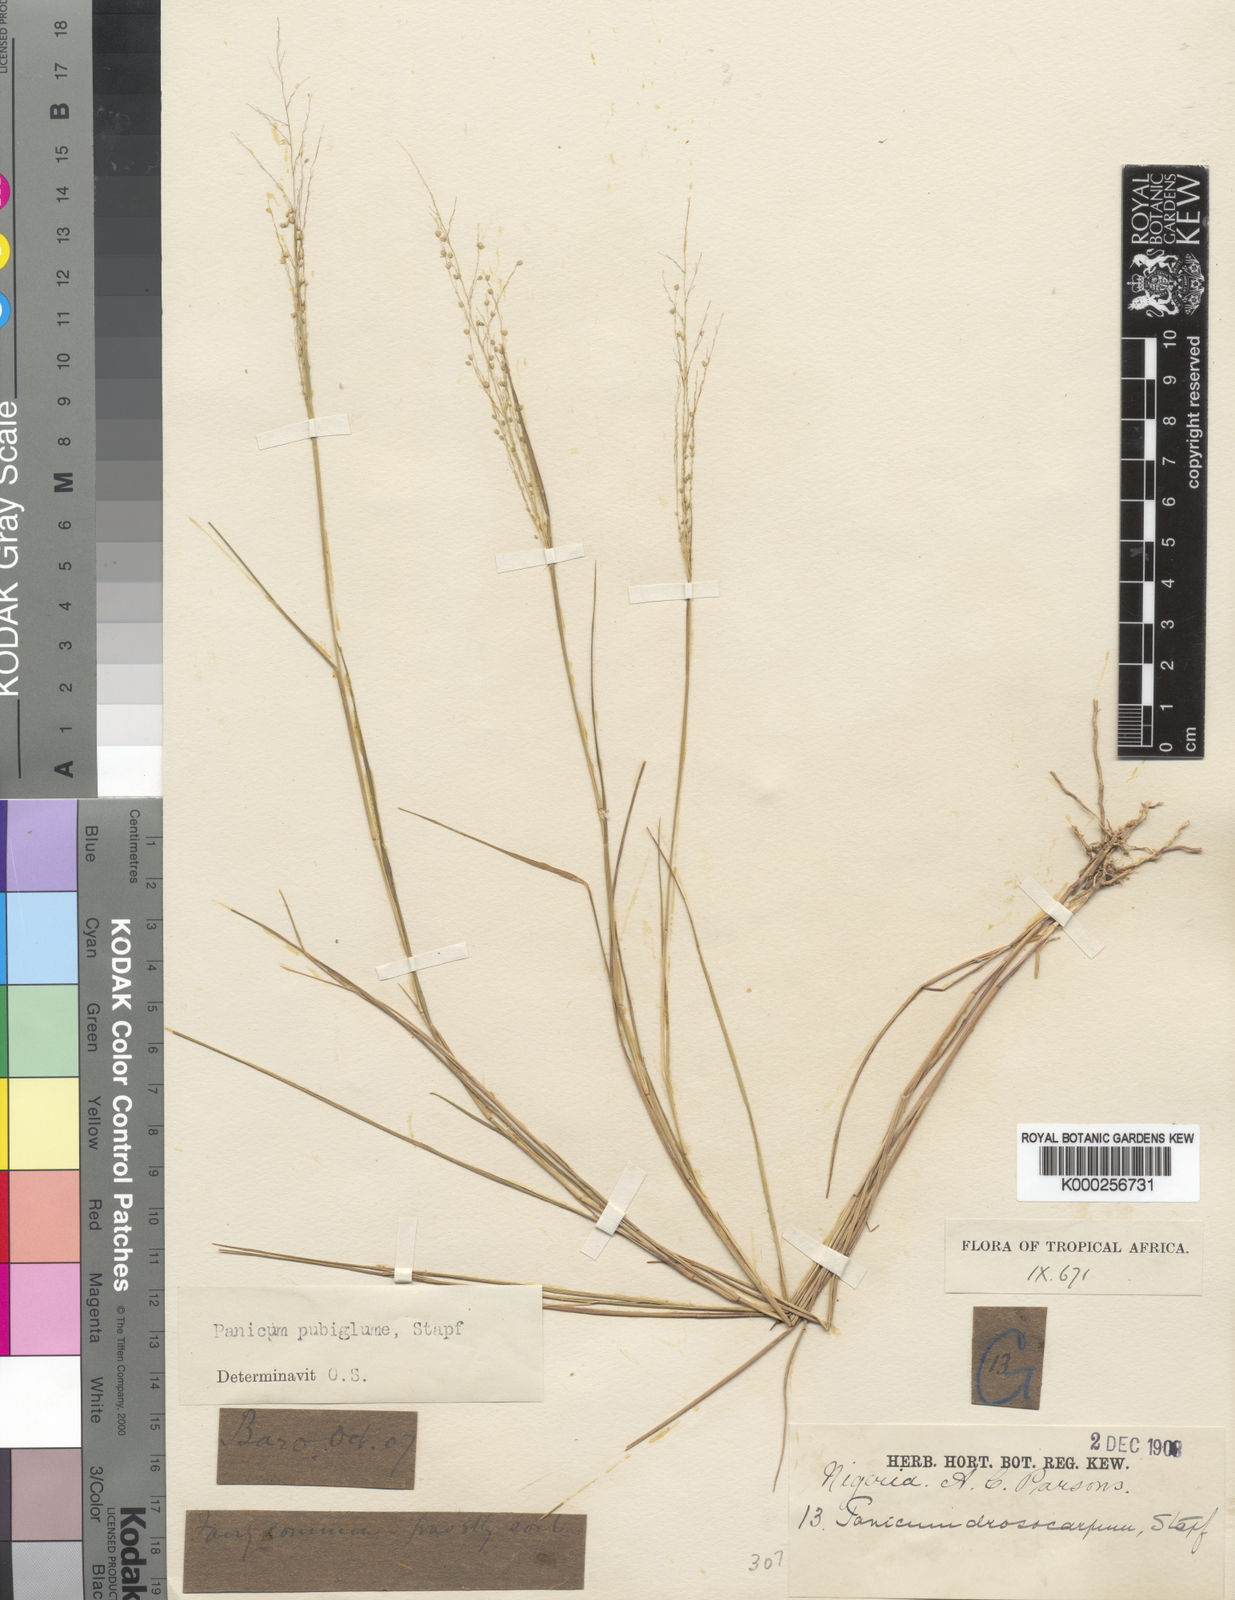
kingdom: Plantae
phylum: Tracheophyta
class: Liliopsida
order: Poales
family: Poaceae
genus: Trichanthecium
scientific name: Trichanthecium brazzavillense
